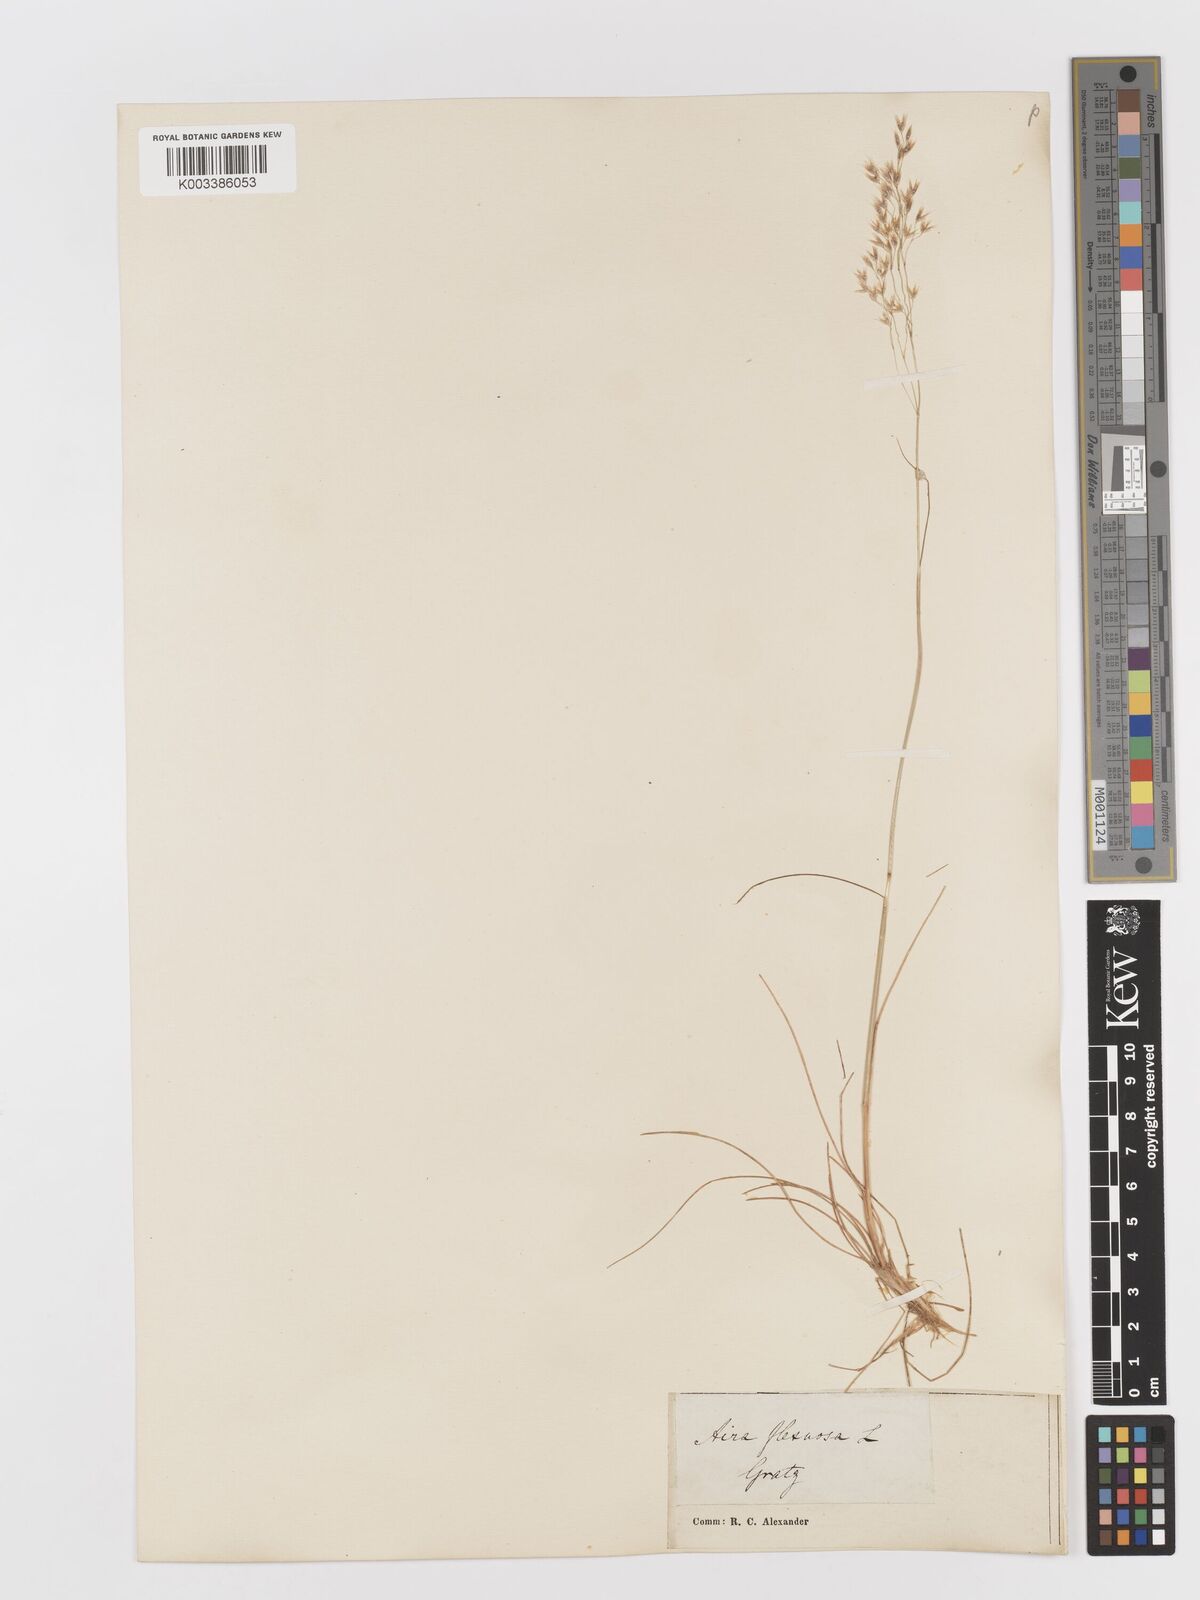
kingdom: Plantae
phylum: Tracheophyta
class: Liliopsida
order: Poales
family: Poaceae
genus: Avenella
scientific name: Avenella flexuosa
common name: Wavy hairgrass
